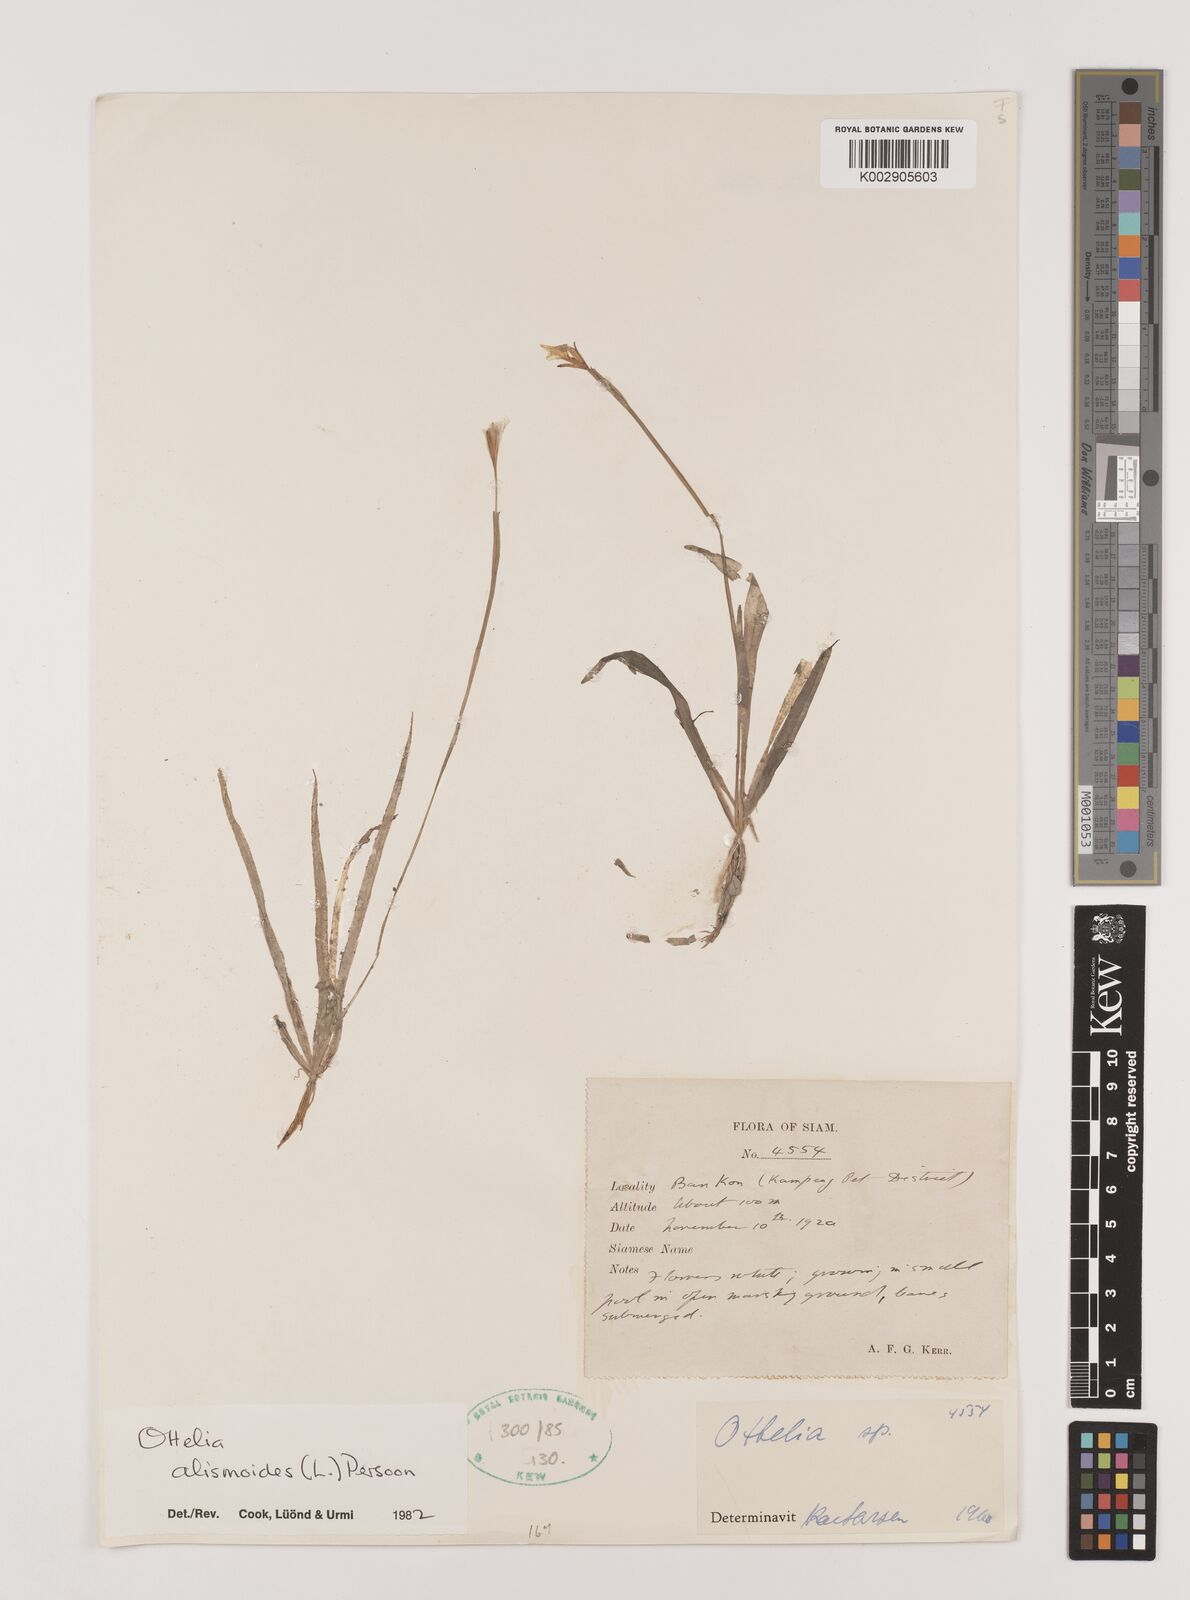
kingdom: Plantae
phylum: Tracheophyta
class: Liliopsida
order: Alismatales
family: Hydrocharitaceae
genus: Ottelia
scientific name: Ottelia alismoides
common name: Duck-lettuce
